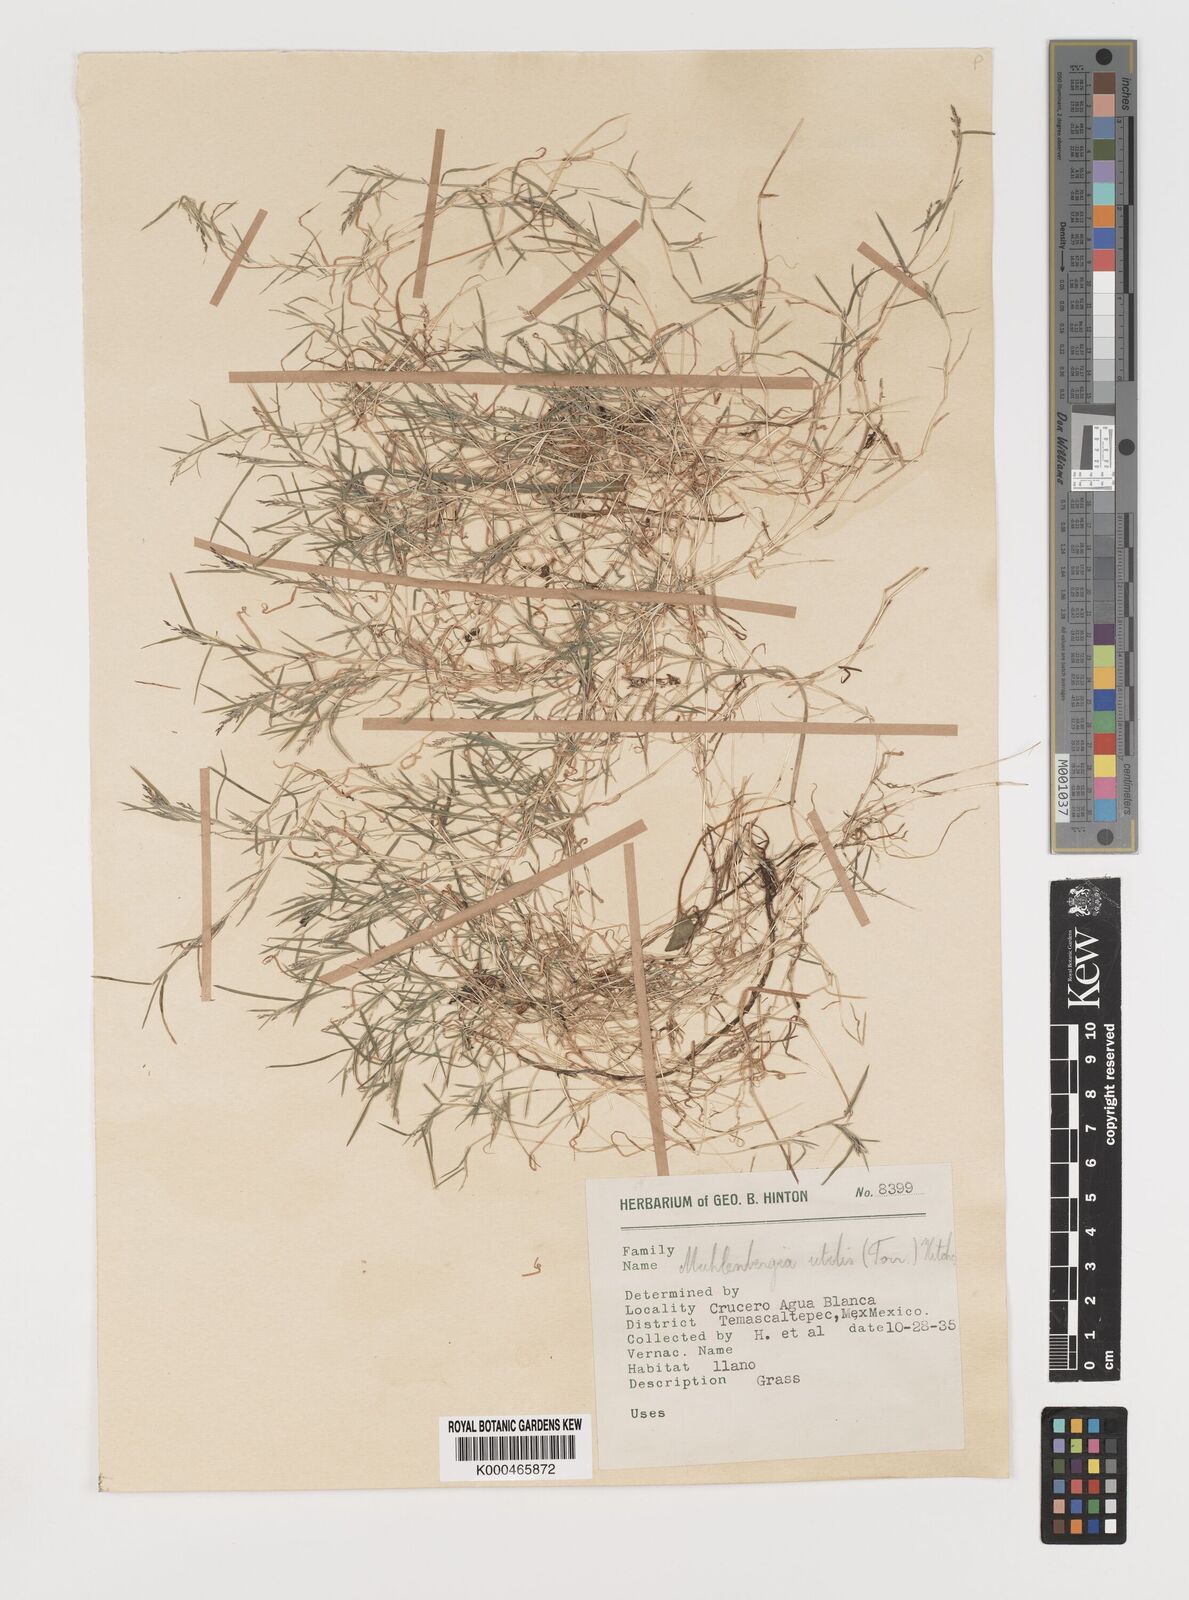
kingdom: Plantae
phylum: Tracheophyta
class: Liliopsida
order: Poales
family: Poaceae
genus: Muhlenbergia
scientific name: Muhlenbergia utilis
